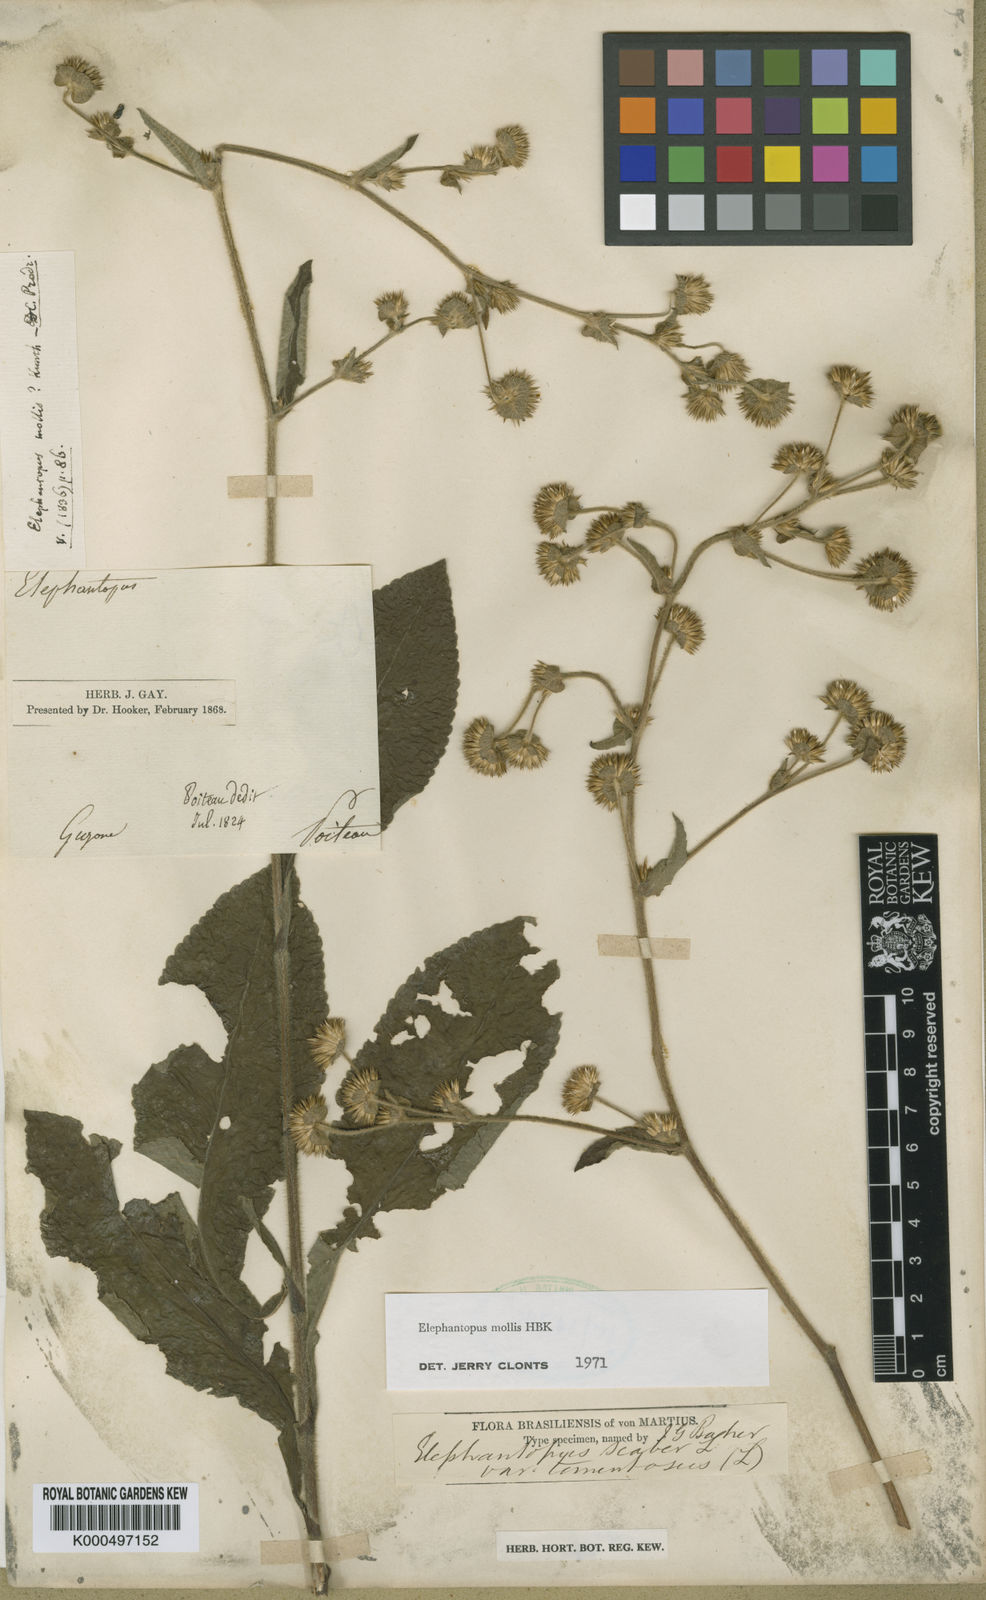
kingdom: Plantae
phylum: Tracheophyta
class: Magnoliopsida
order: Asterales
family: Asteraceae
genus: Elephantopus
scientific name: Elephantopus mollis
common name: Soft elephantsfoot
